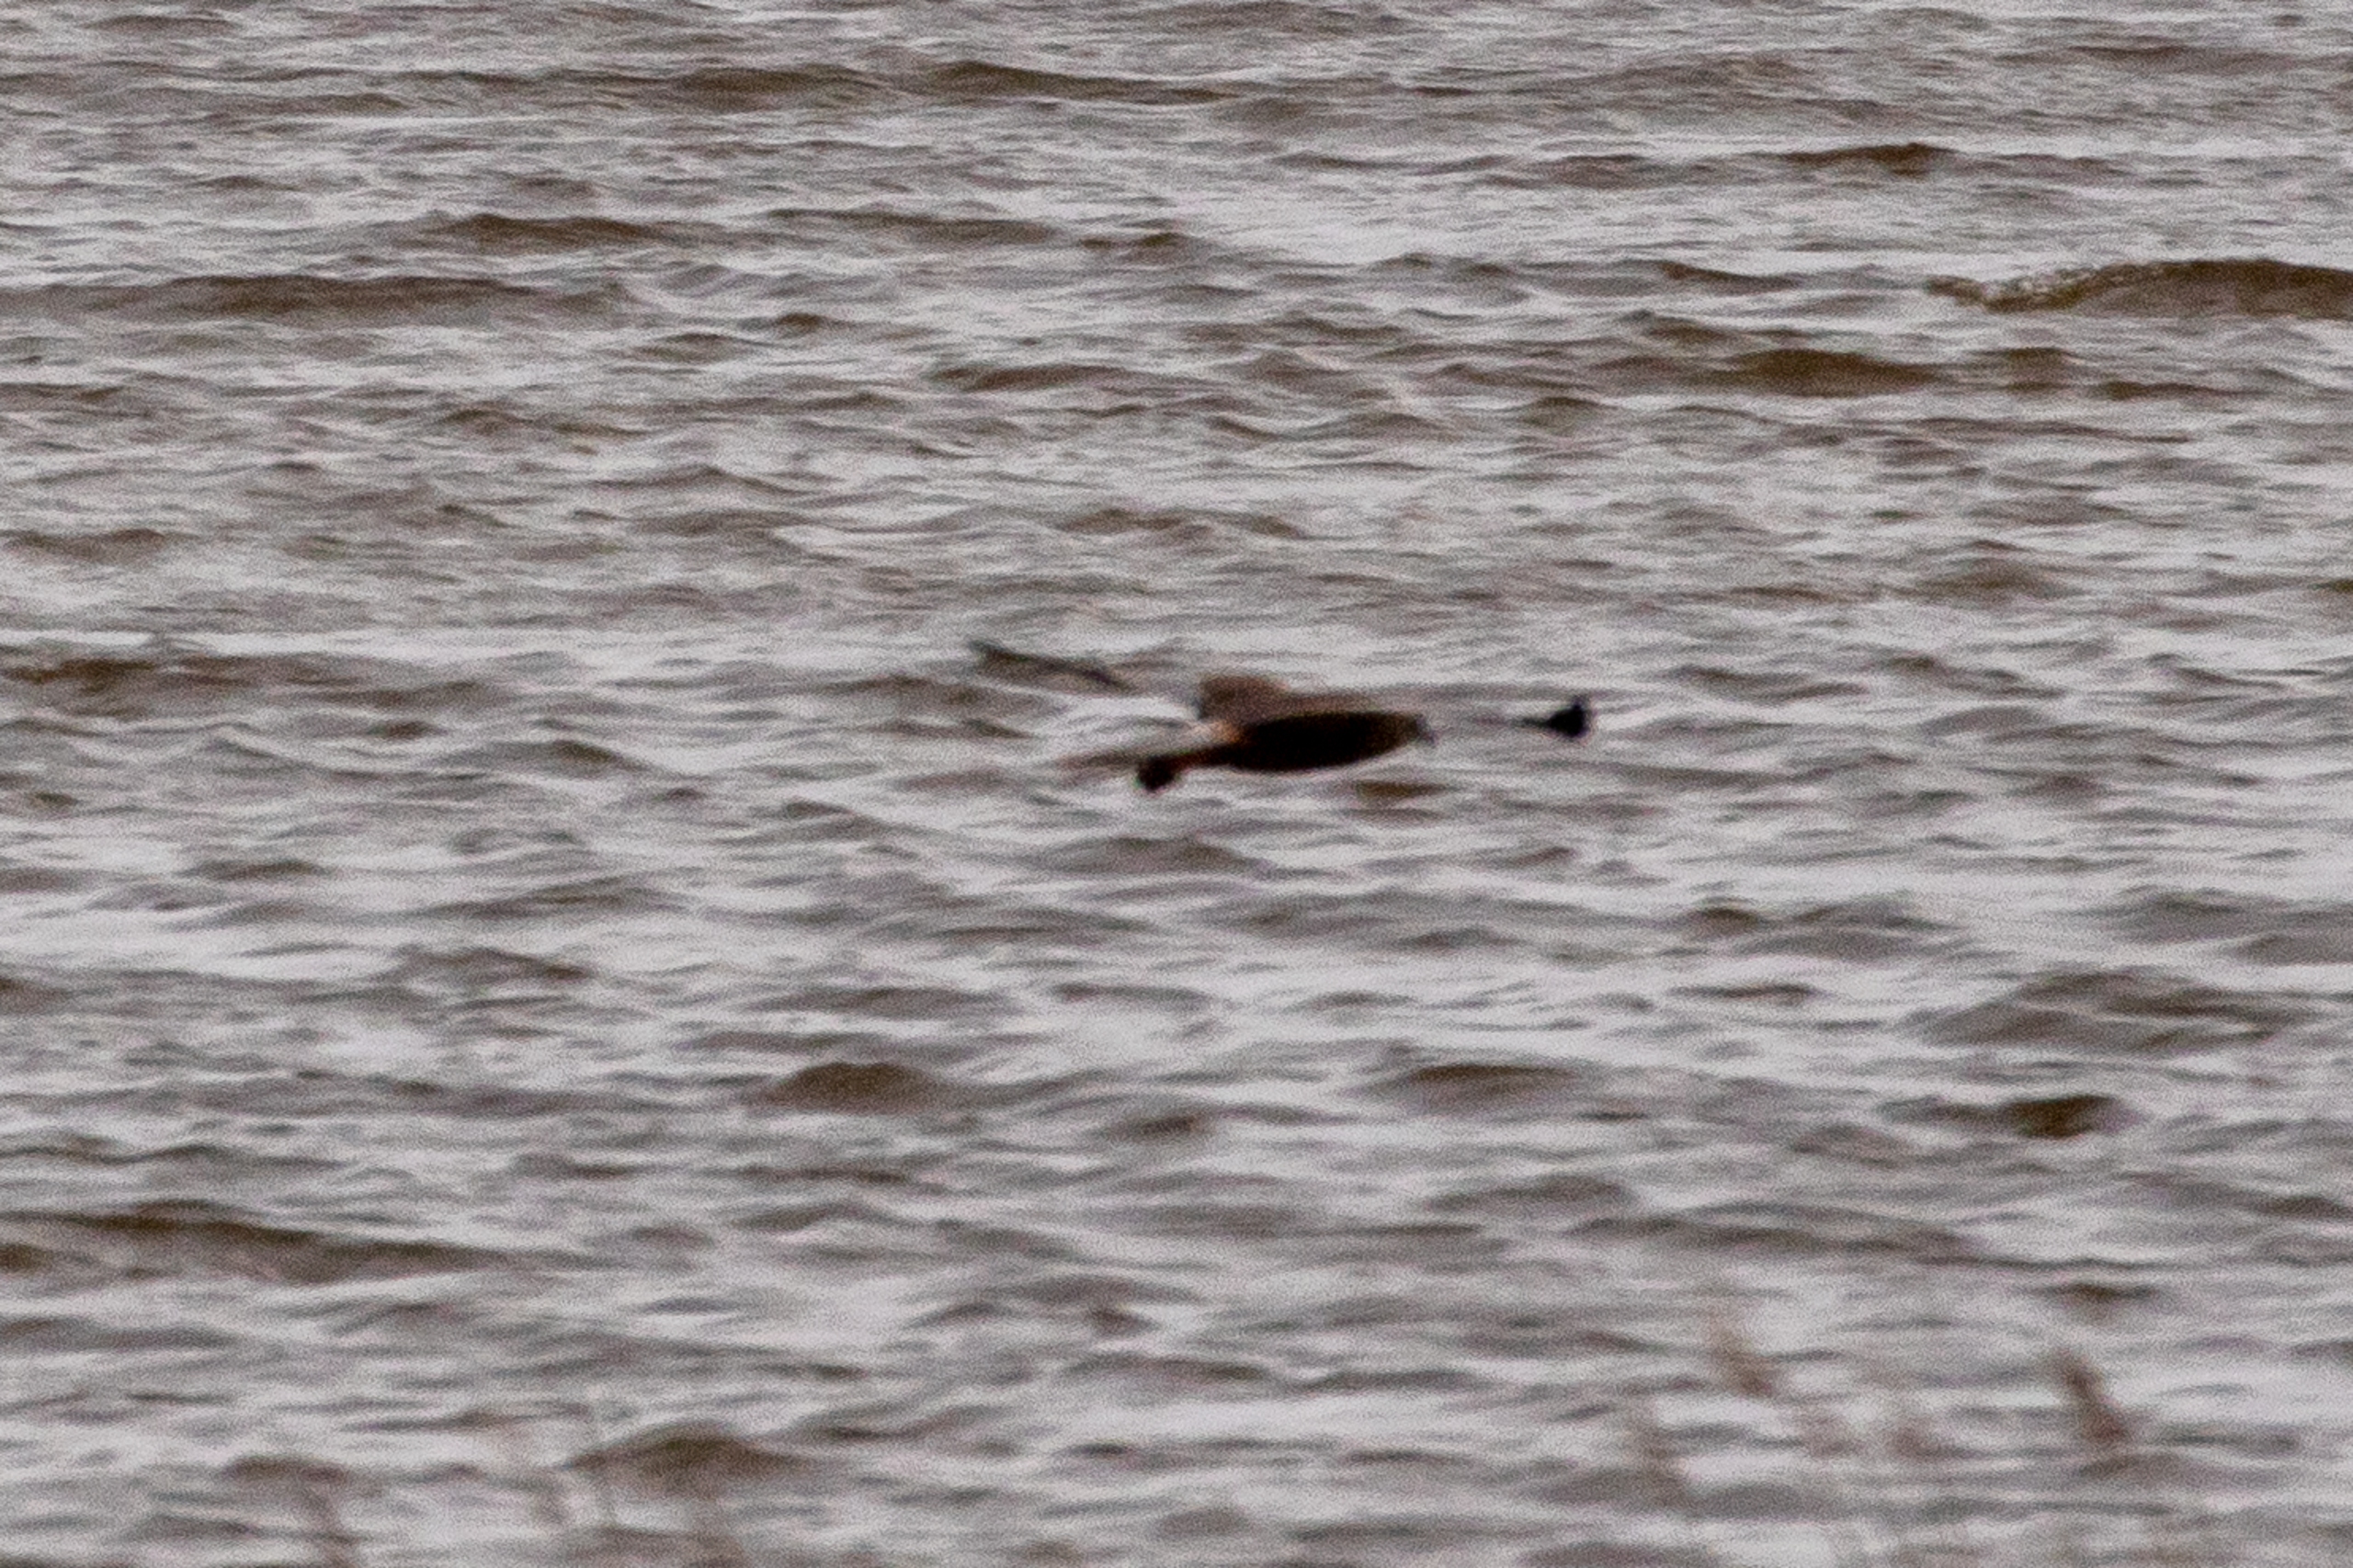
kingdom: Animalia
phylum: Chordata
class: Aves
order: Accipitriformes
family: Accipitridae
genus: Circus
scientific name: Circus aeruginosus
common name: Rørhøg
